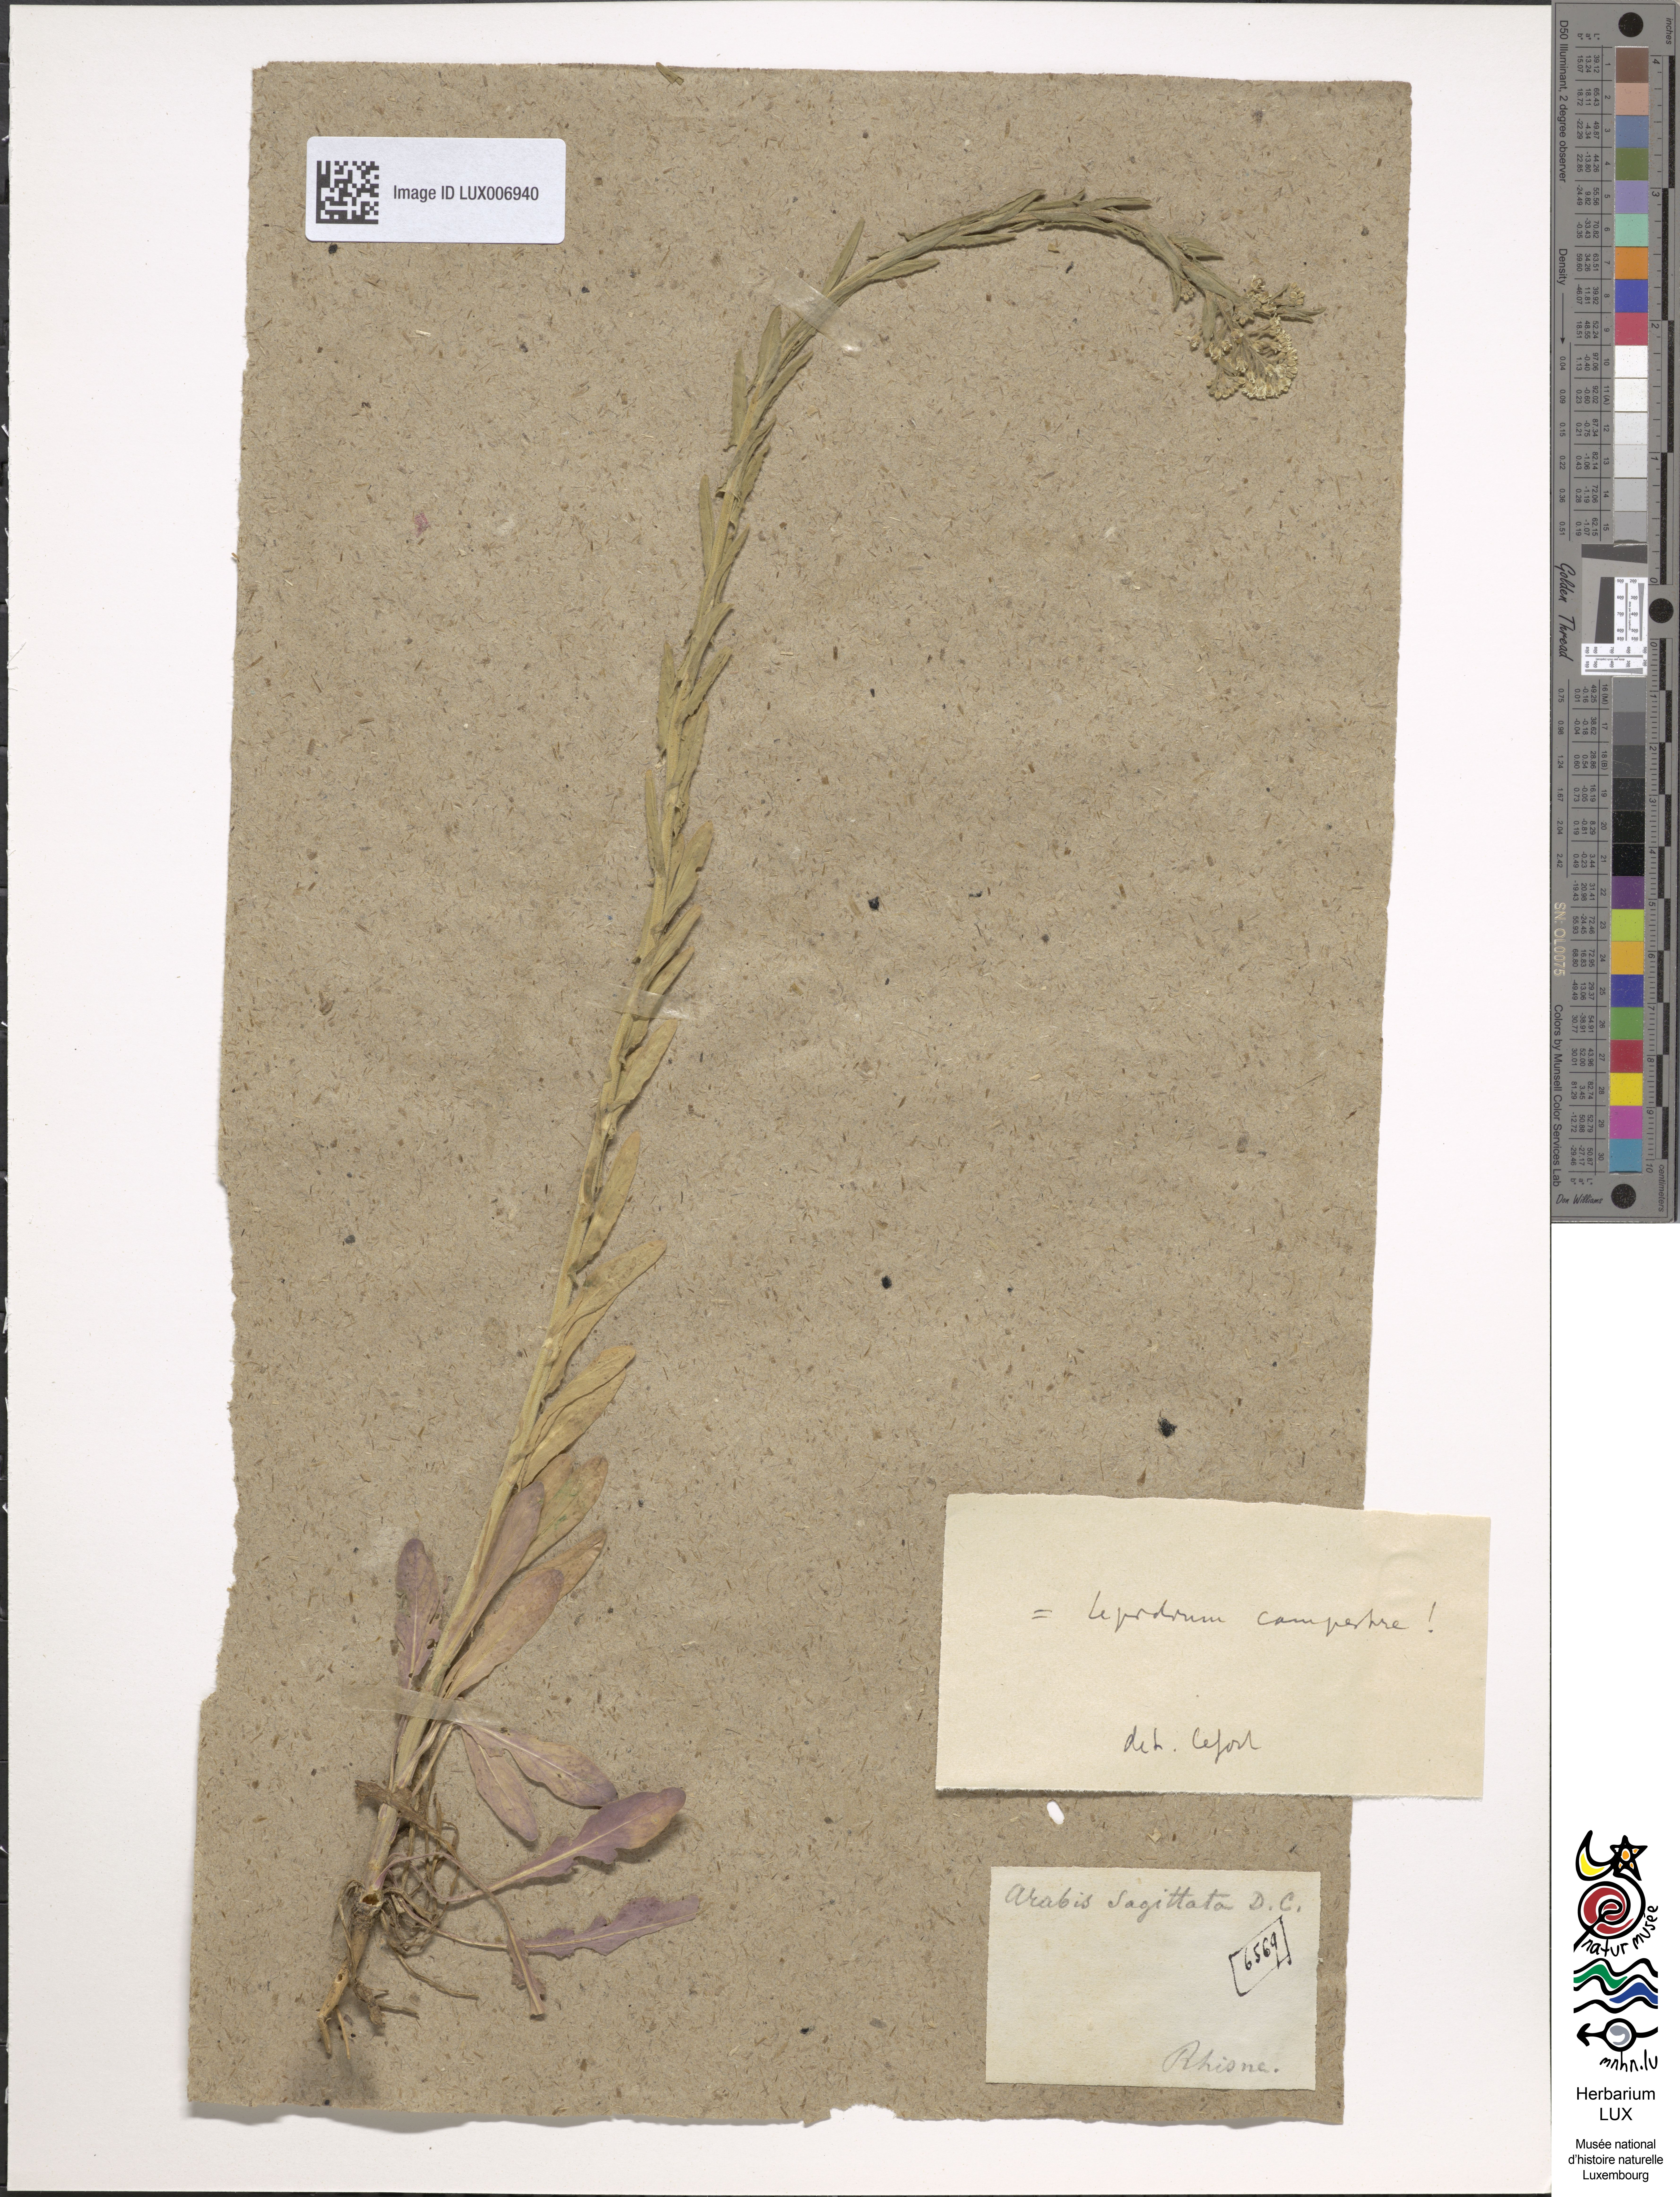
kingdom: Plantae
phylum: Tracheophyta
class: Magnoliopsida
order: Brassicales
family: Brassicaceae
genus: Arabis
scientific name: Arabis sagittata
